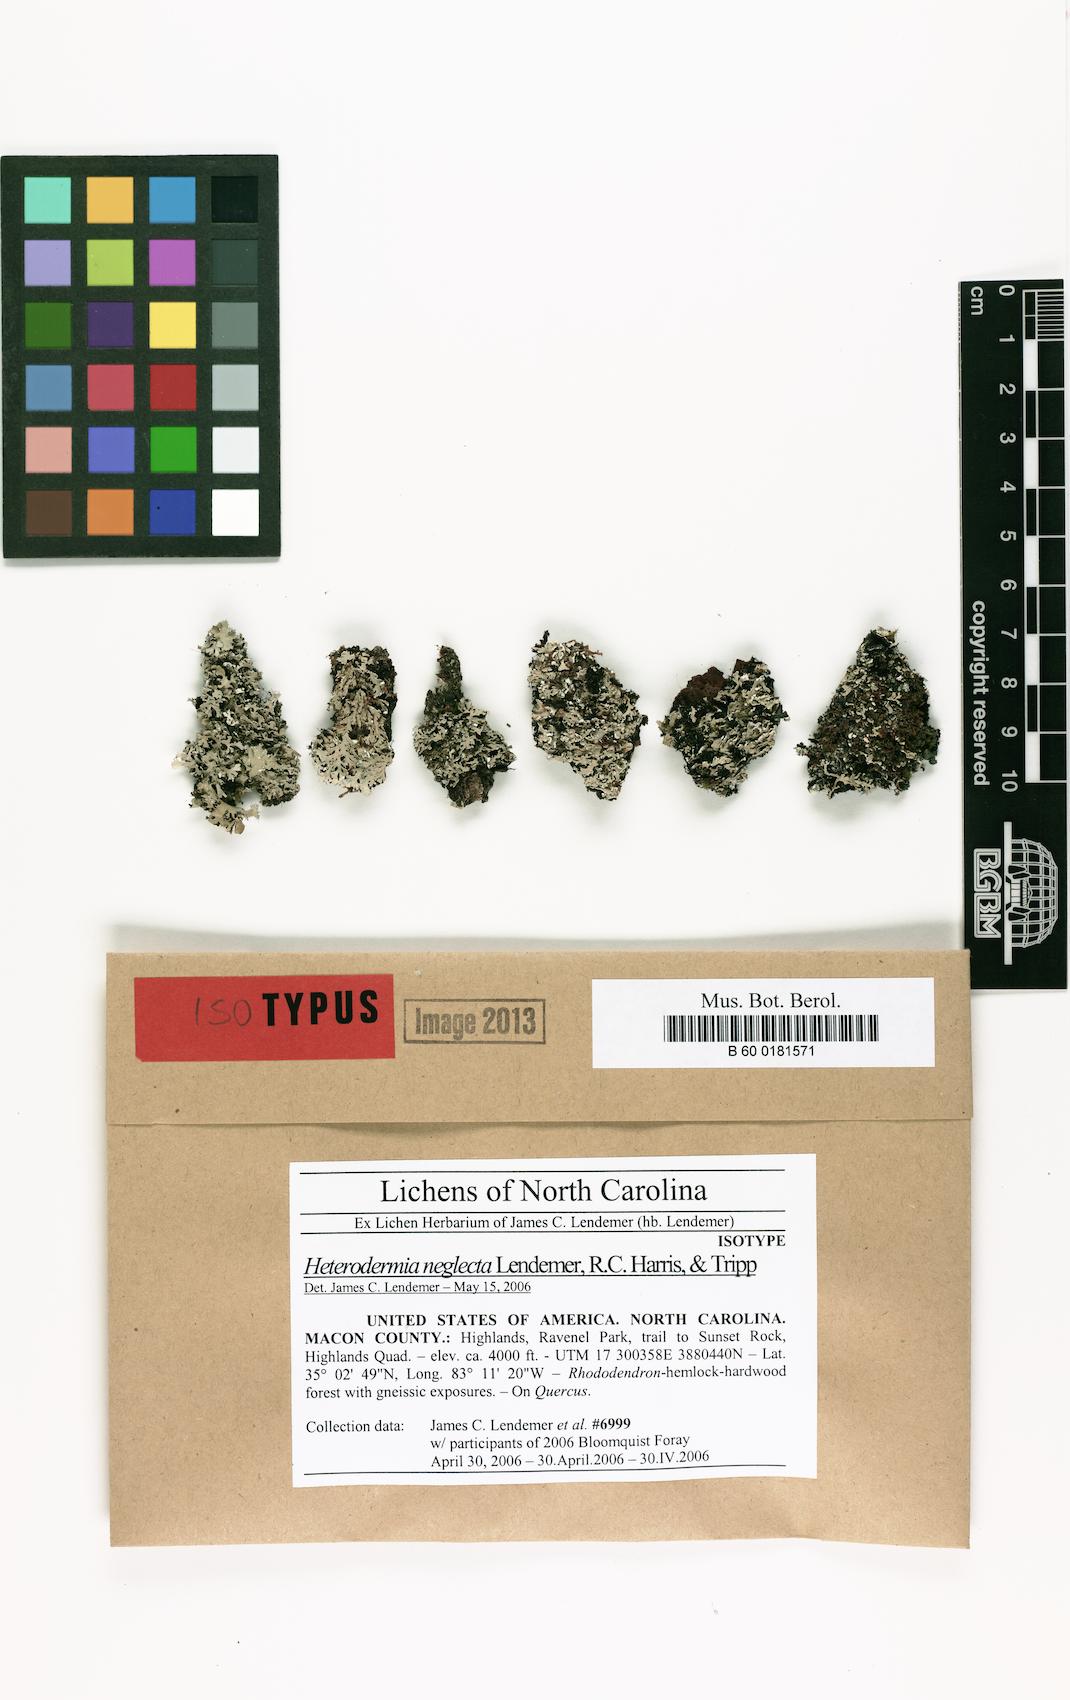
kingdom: Fungi
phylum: Ascomycota
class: Lecanoromycetes
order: Caliciales
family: Physciaceae
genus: Polyblastidium
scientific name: Polyblastidium neglectum
